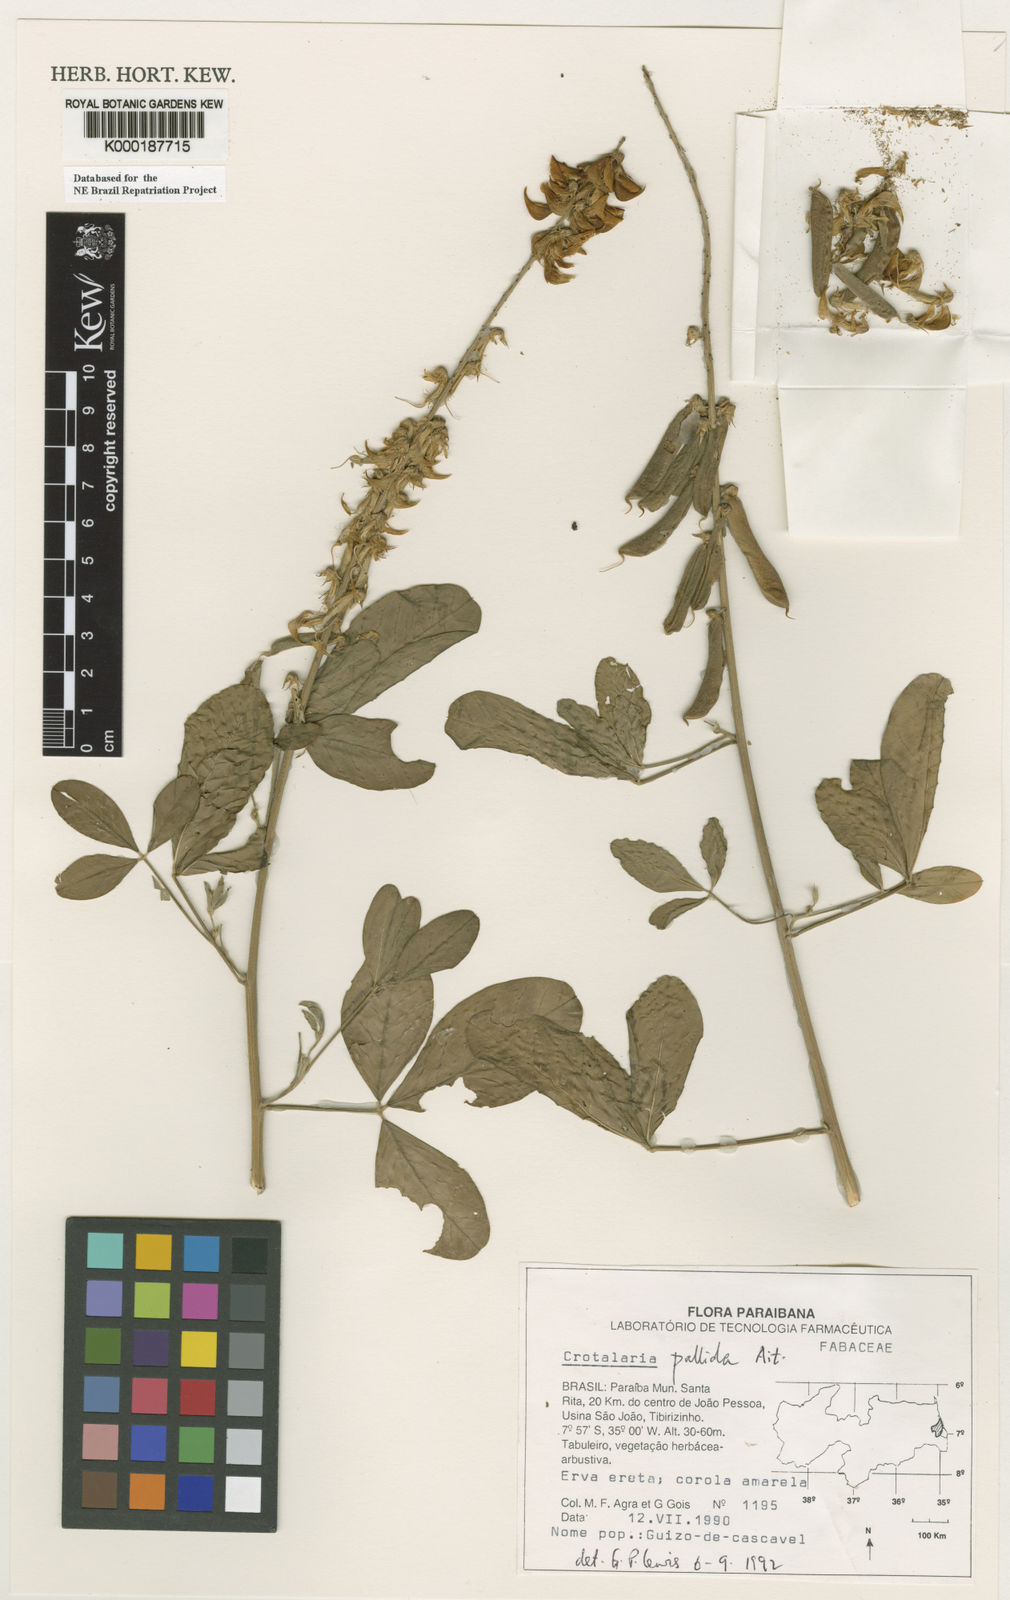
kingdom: Plantae
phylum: Tracheophyta
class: Magnoliopsida
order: Fabales
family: Fabaceae
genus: Crotalaria
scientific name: Crotalaria pallida
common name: Smooth rattlebox
